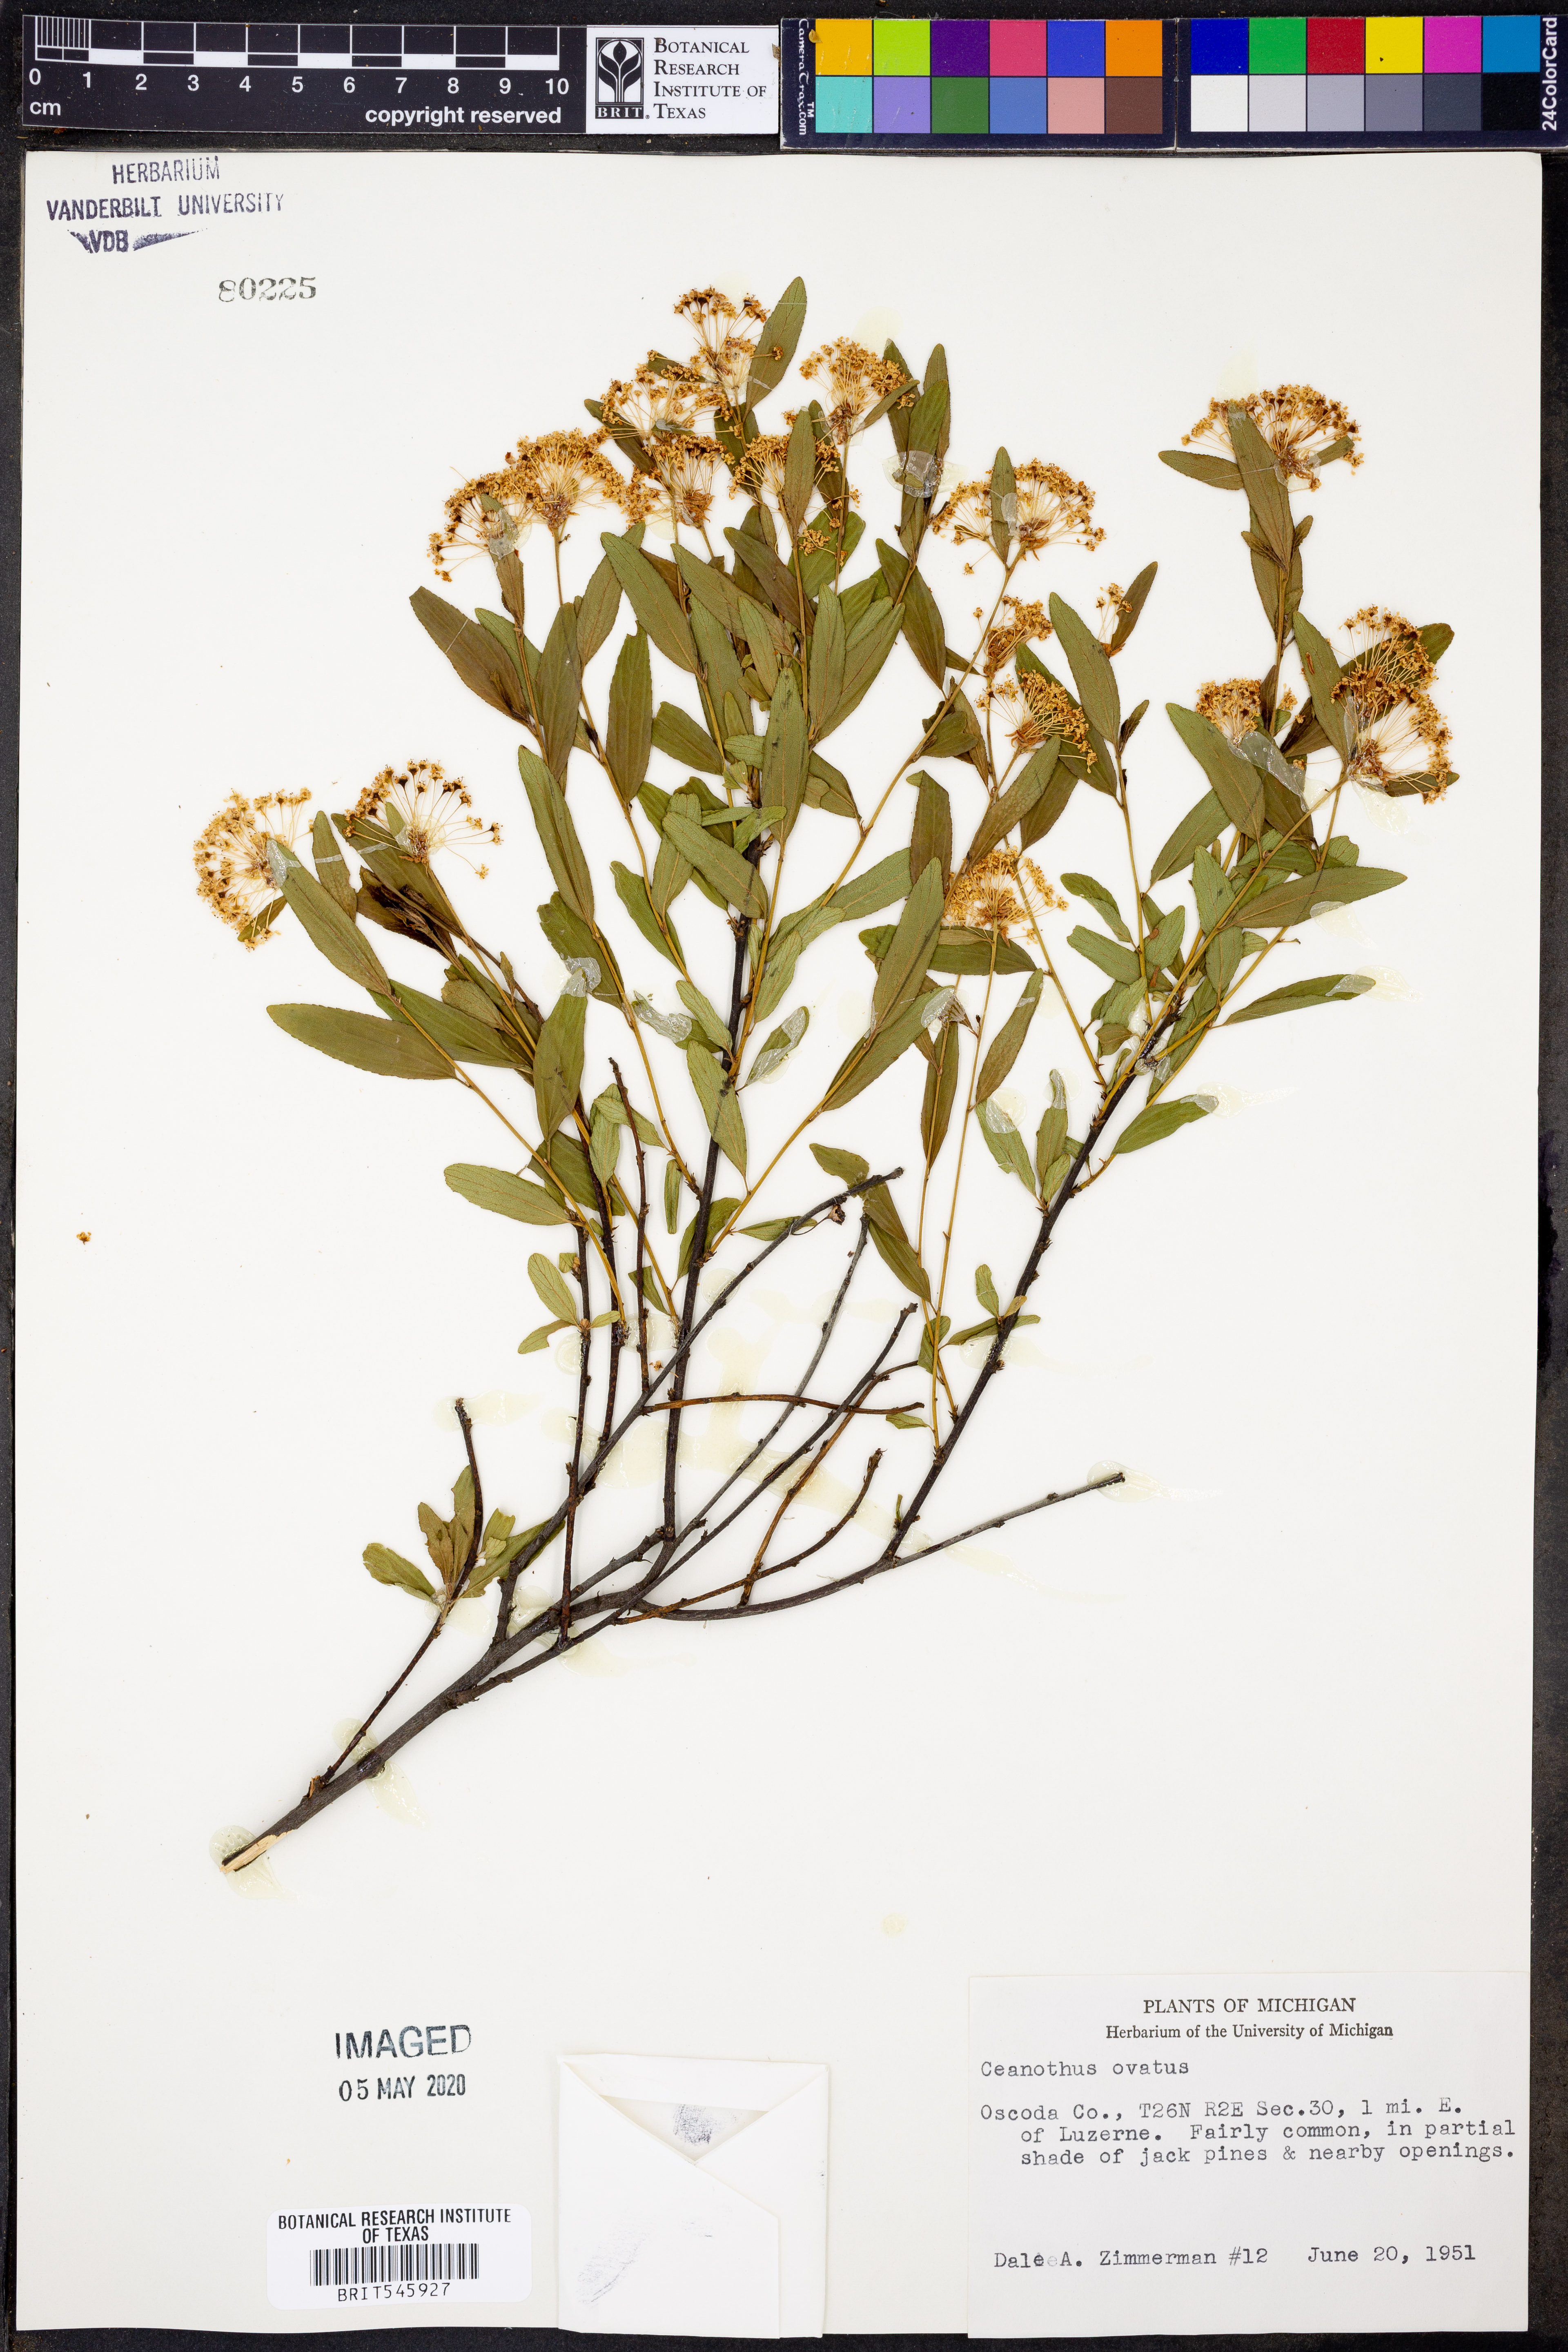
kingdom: Plantae
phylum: Tracheophyta
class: Magnoliopsida
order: Rosales
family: Rhamnaceae
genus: Ceanothus
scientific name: Ceanothus herbaceus
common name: Inland ceanothus
